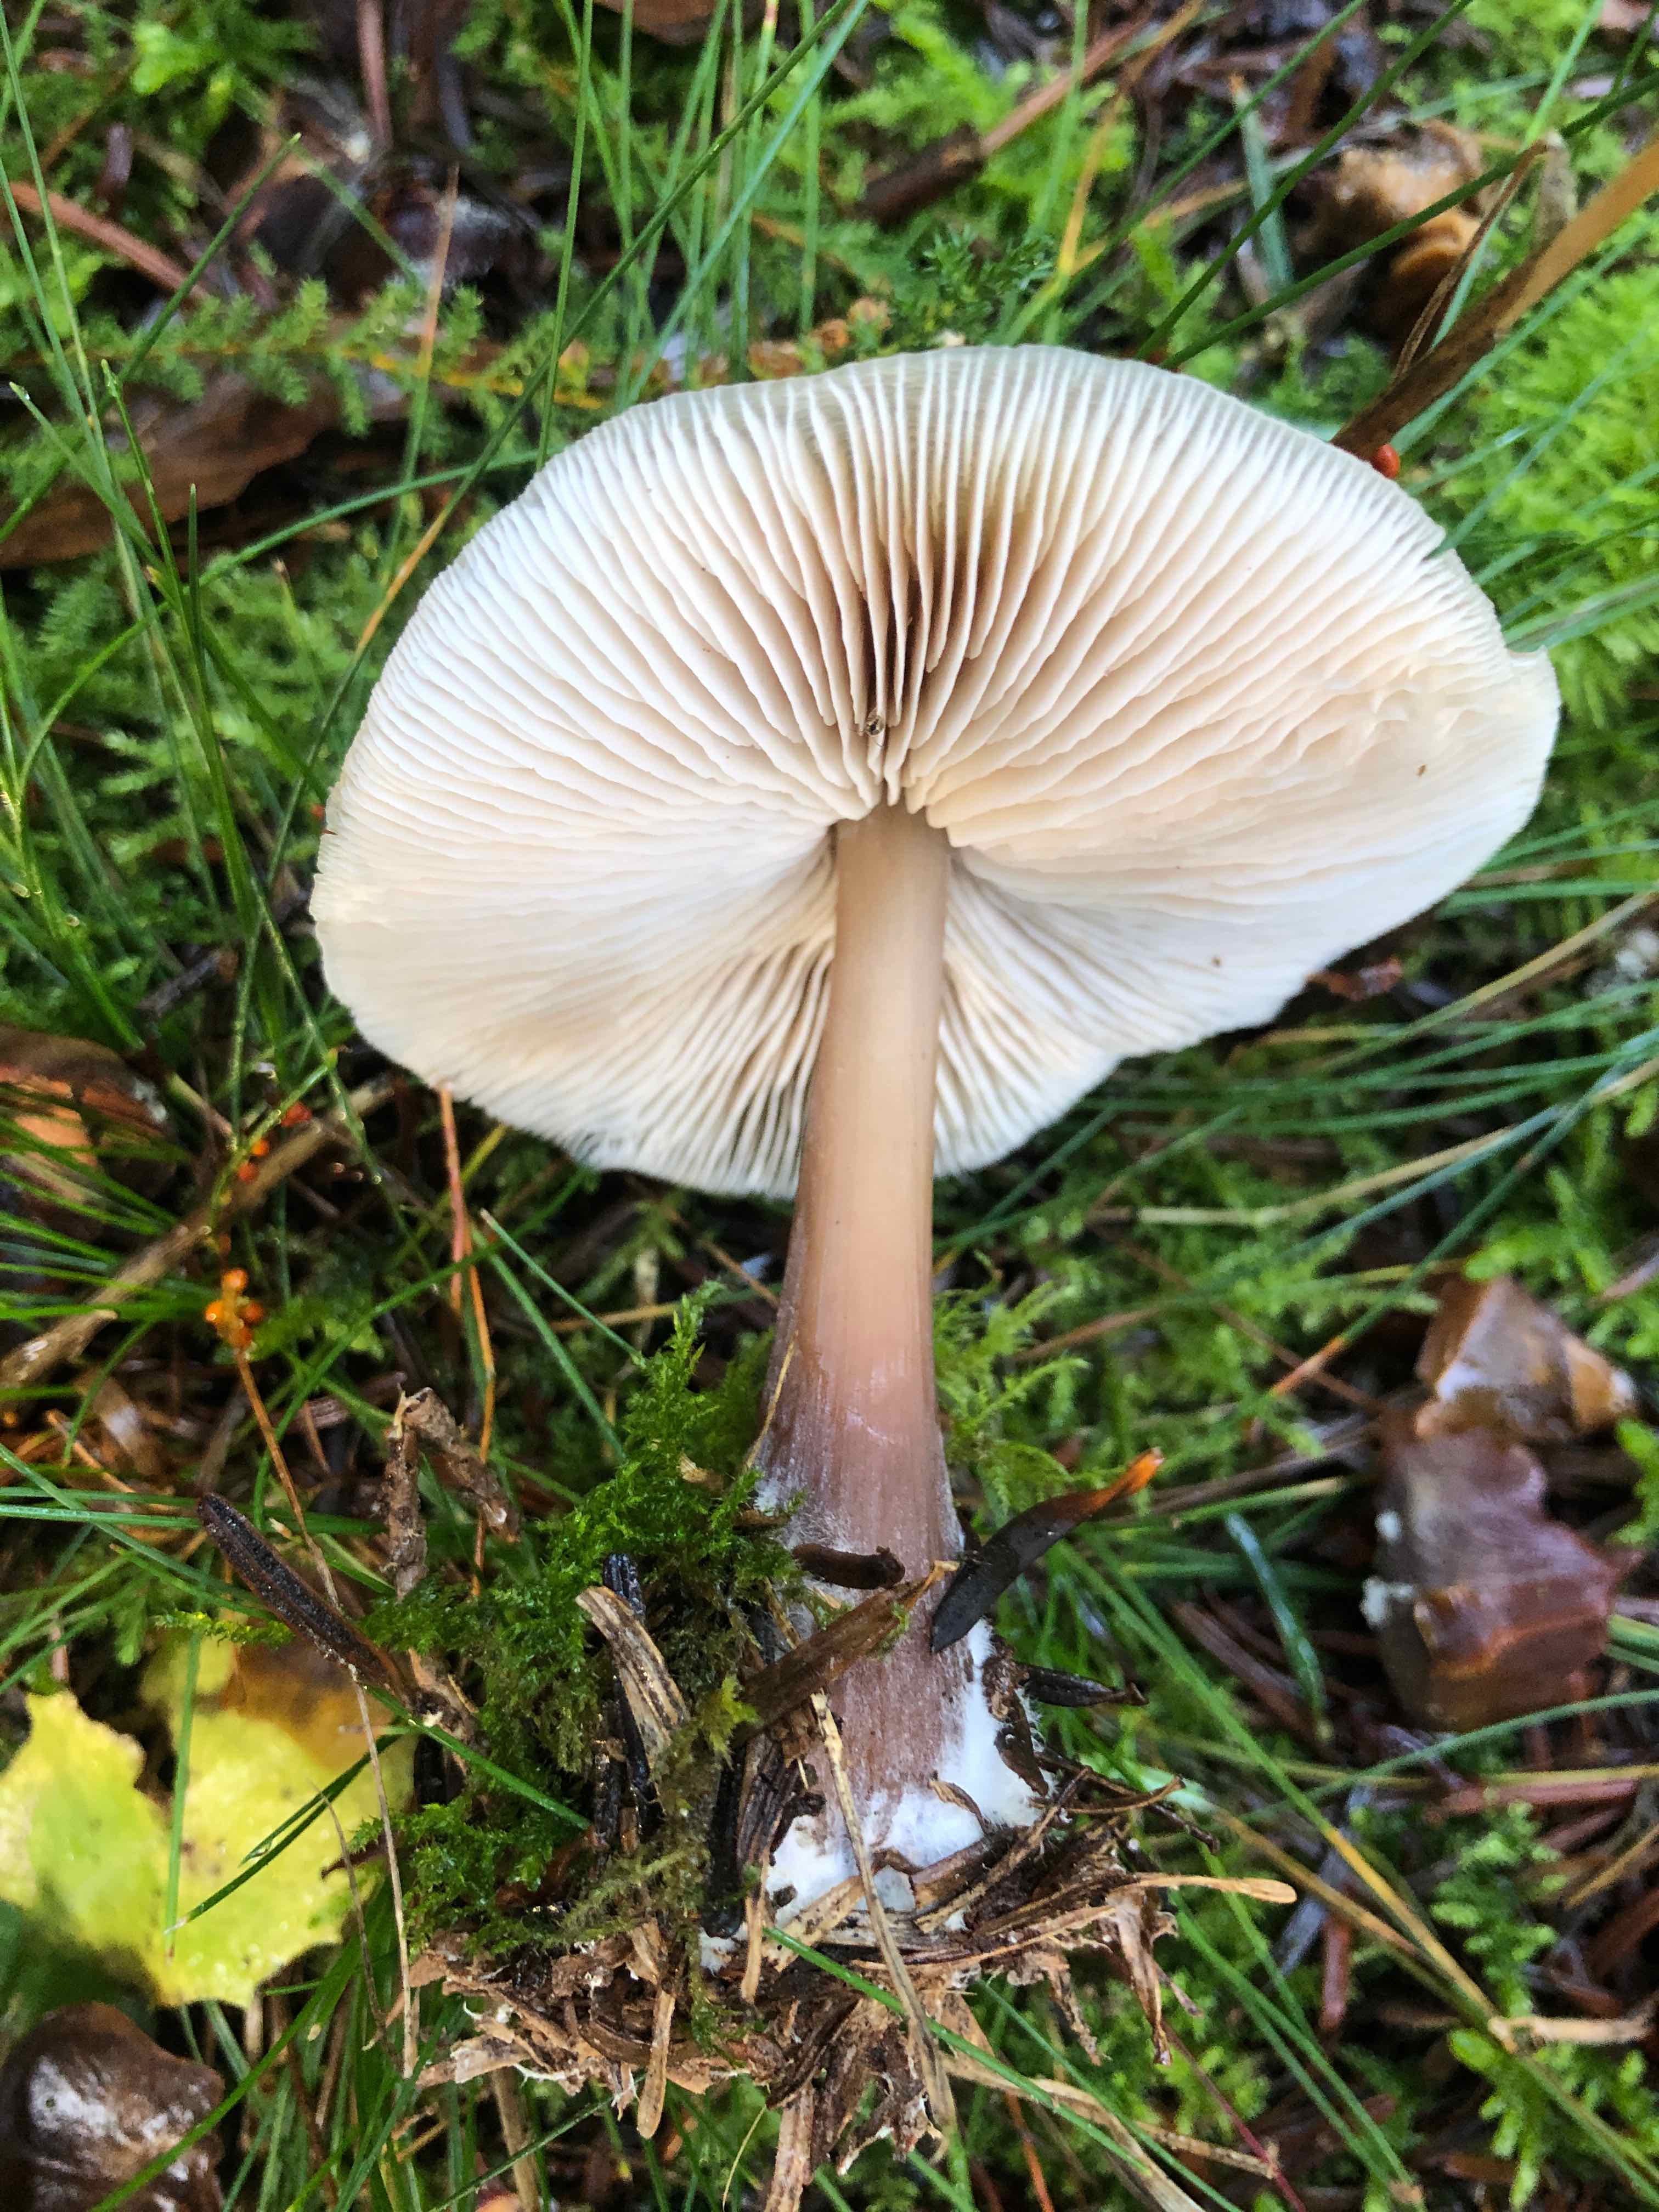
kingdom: Fungi
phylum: Basidiomycota
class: Agaricomycetes
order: Agaricales
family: Omphalotaceae
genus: Rhodocollybia
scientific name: Rhodocollybia asema
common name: horngrå fladhat
